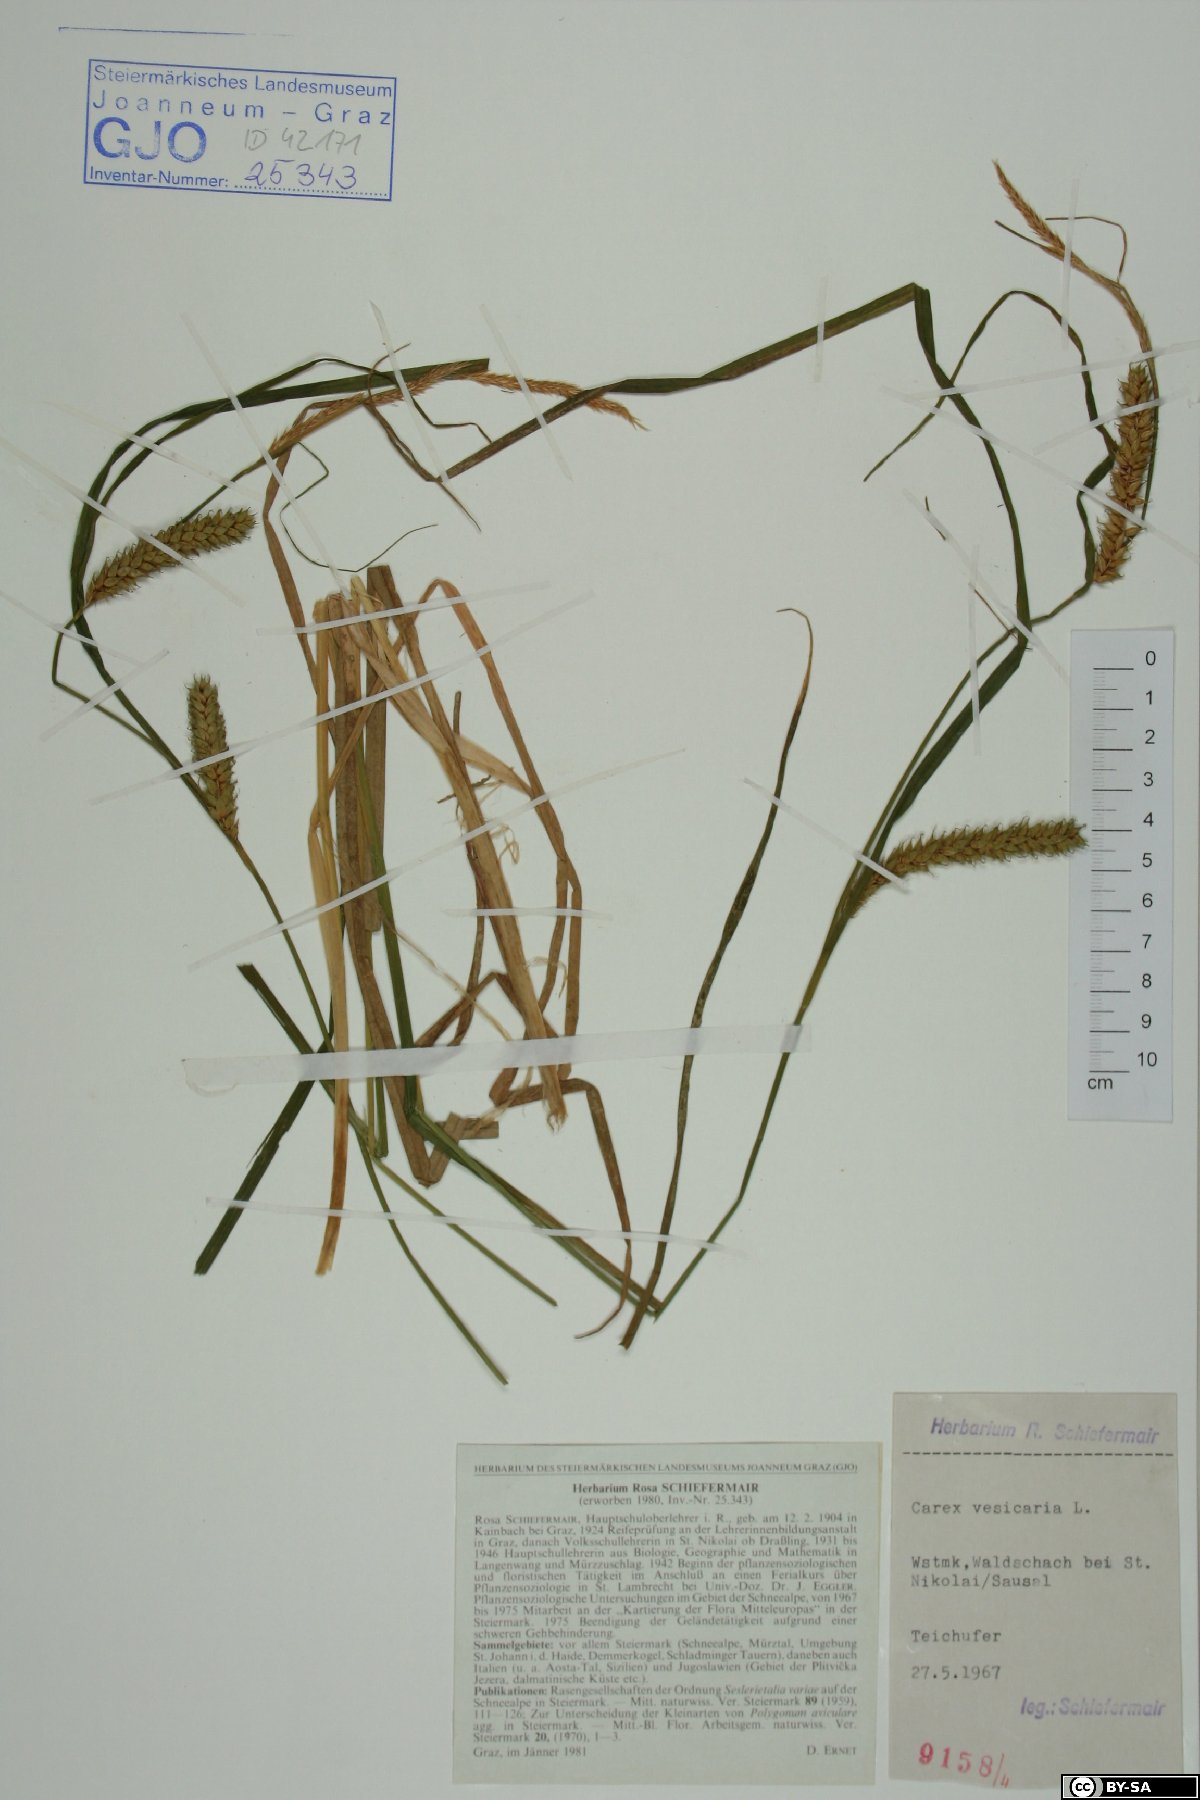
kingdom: Plantae
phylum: Tracheophyta
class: Liliopsida
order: Poales
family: Cyperaceae
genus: Carex
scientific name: Carex vesicaria
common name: Bladder-sedge
